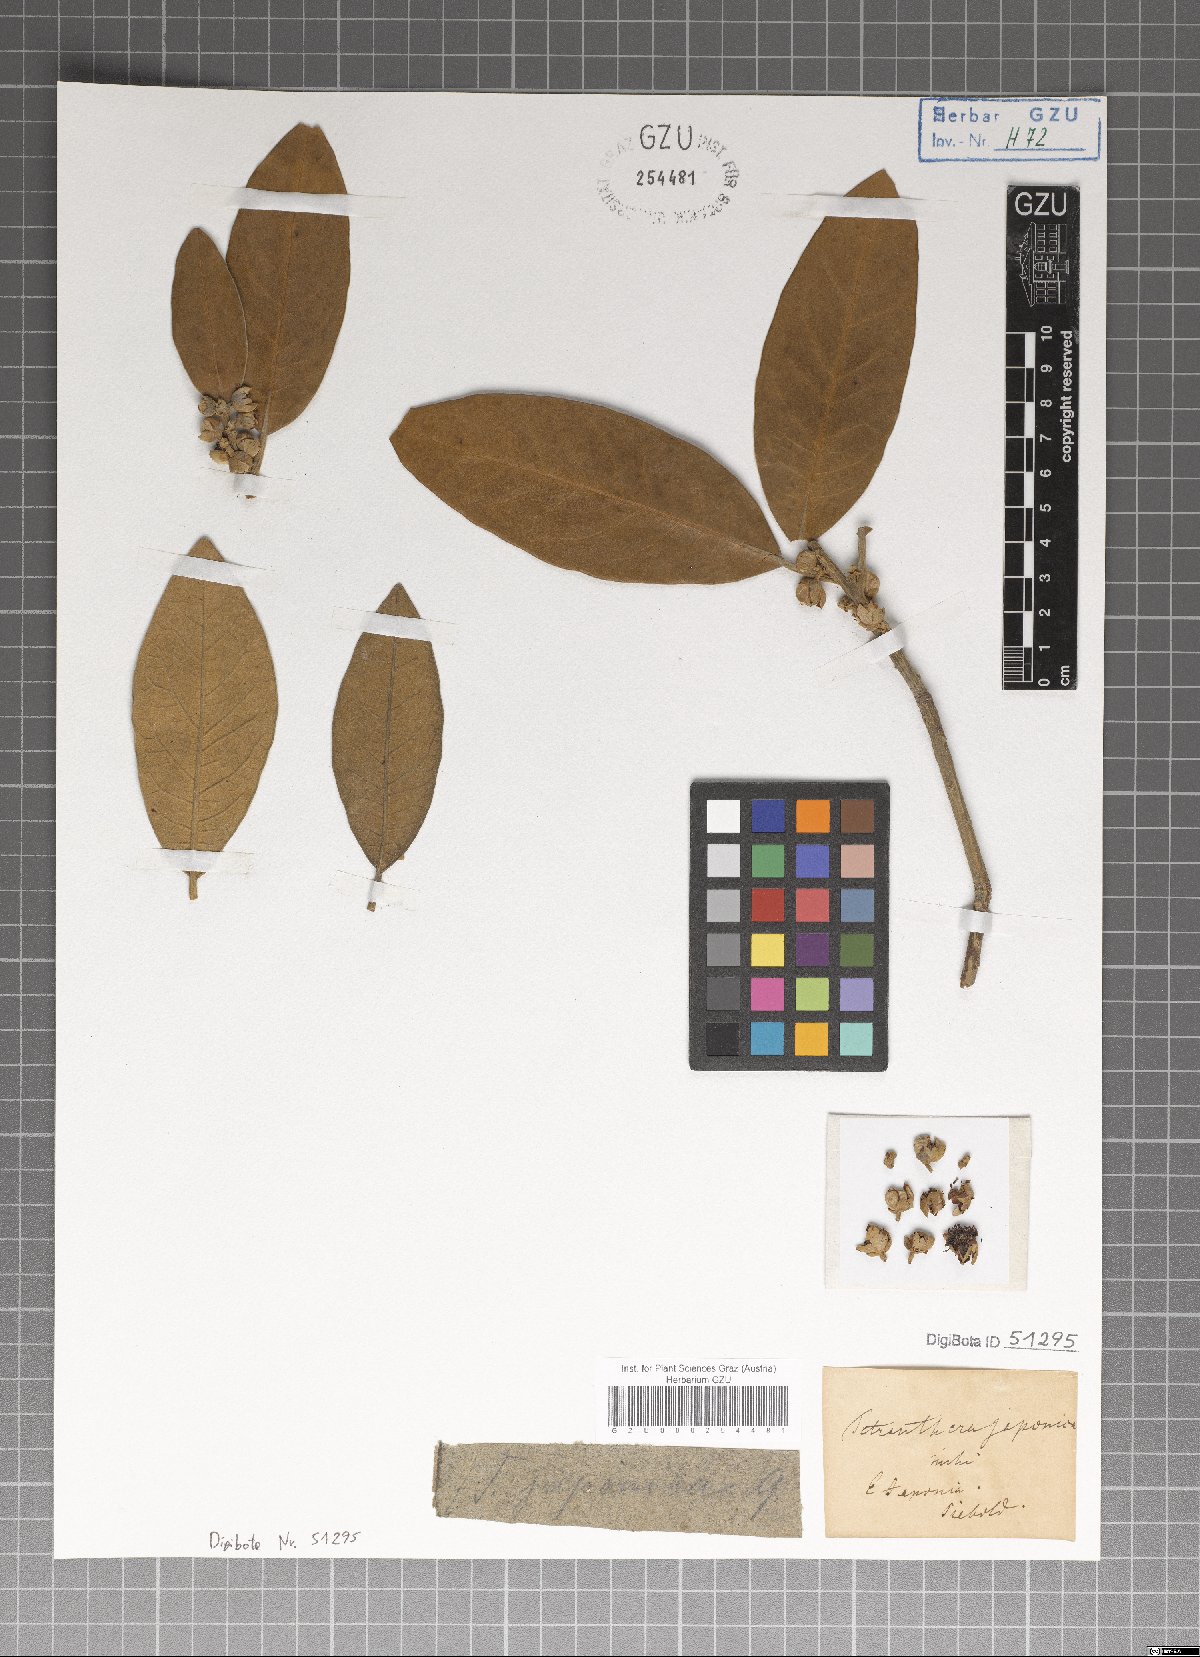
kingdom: Plantae
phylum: Tracheophyta
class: Magnoliopsida
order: Laurales
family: Lauraceae
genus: Litsea
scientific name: Litsea japonica
